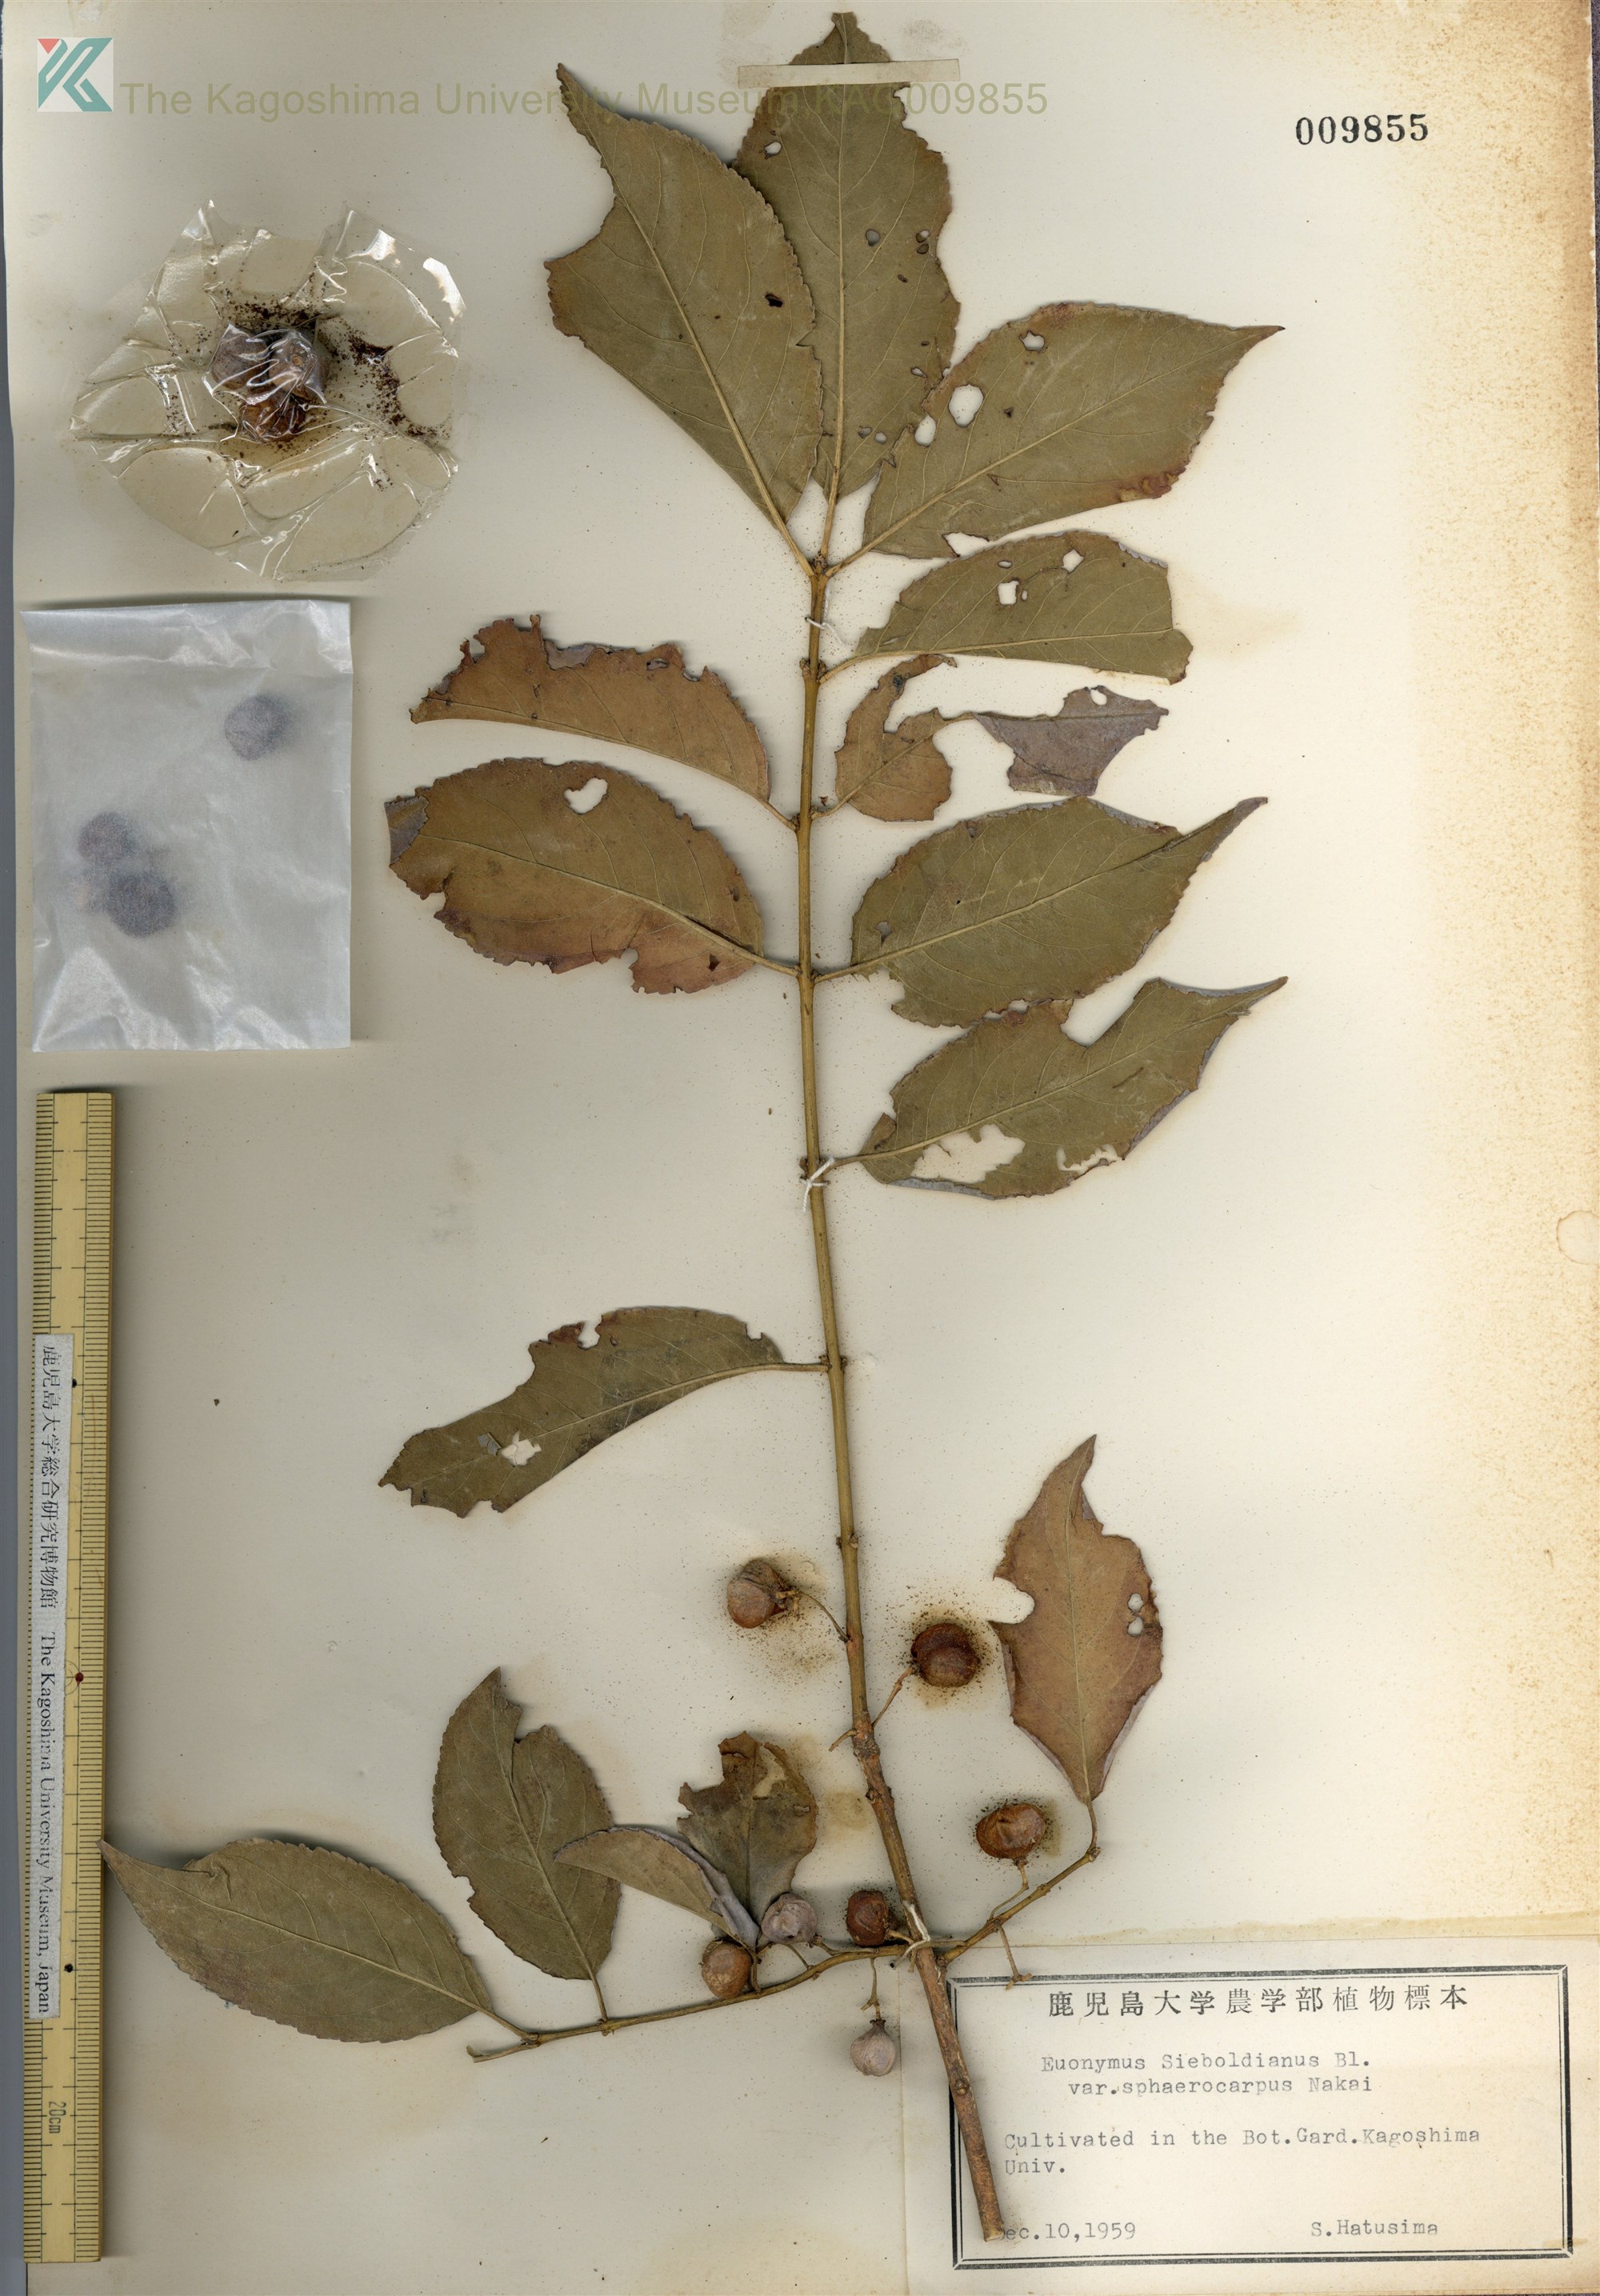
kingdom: Plantae
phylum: Tracheophyta
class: Magnoliopsida
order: Celastrales
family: Celastraceae
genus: Euonymus
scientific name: Euonymus hamiltonianus
